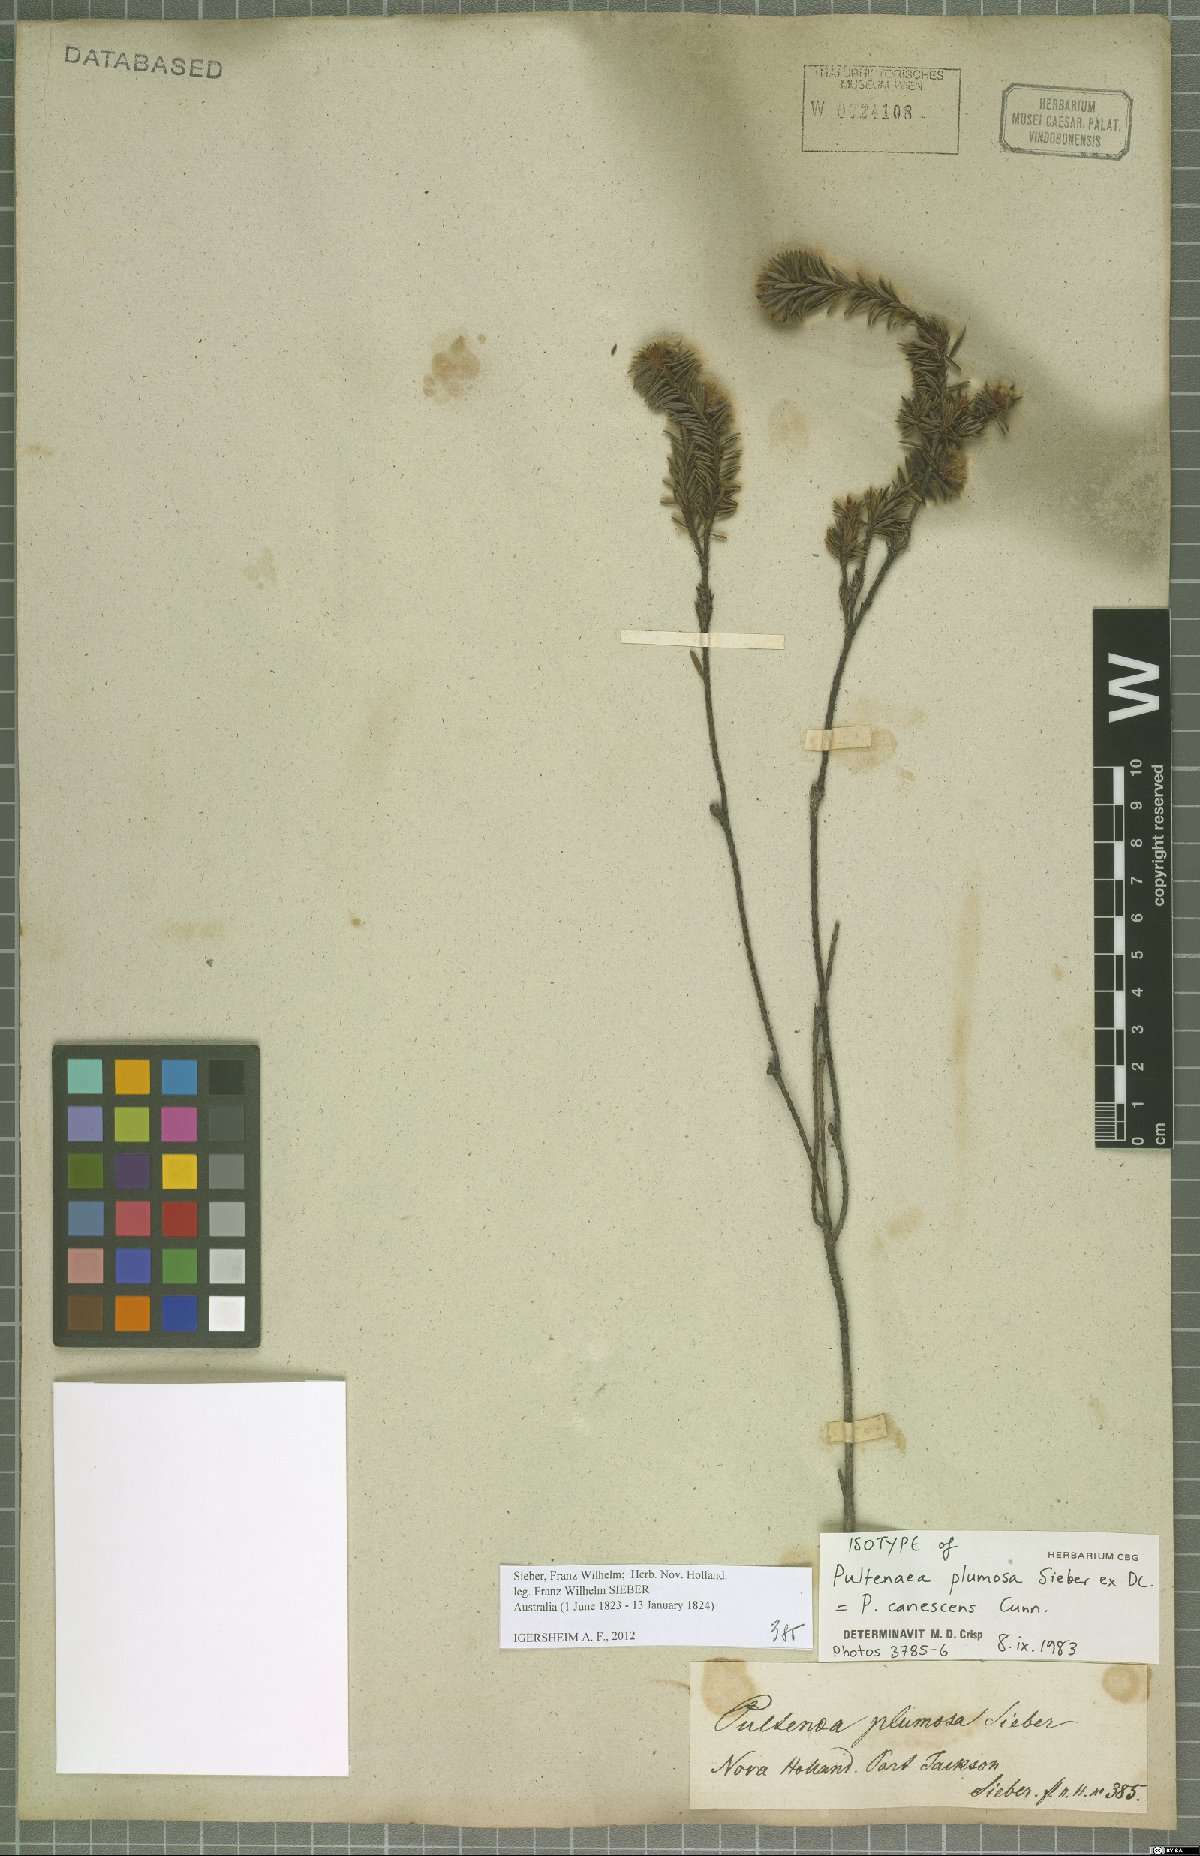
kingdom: Plantae
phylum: Tracheophyta
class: Magnoliopsida
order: Fabales
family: Fabaceae
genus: Pultenaea
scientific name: Pultenaea canescens
